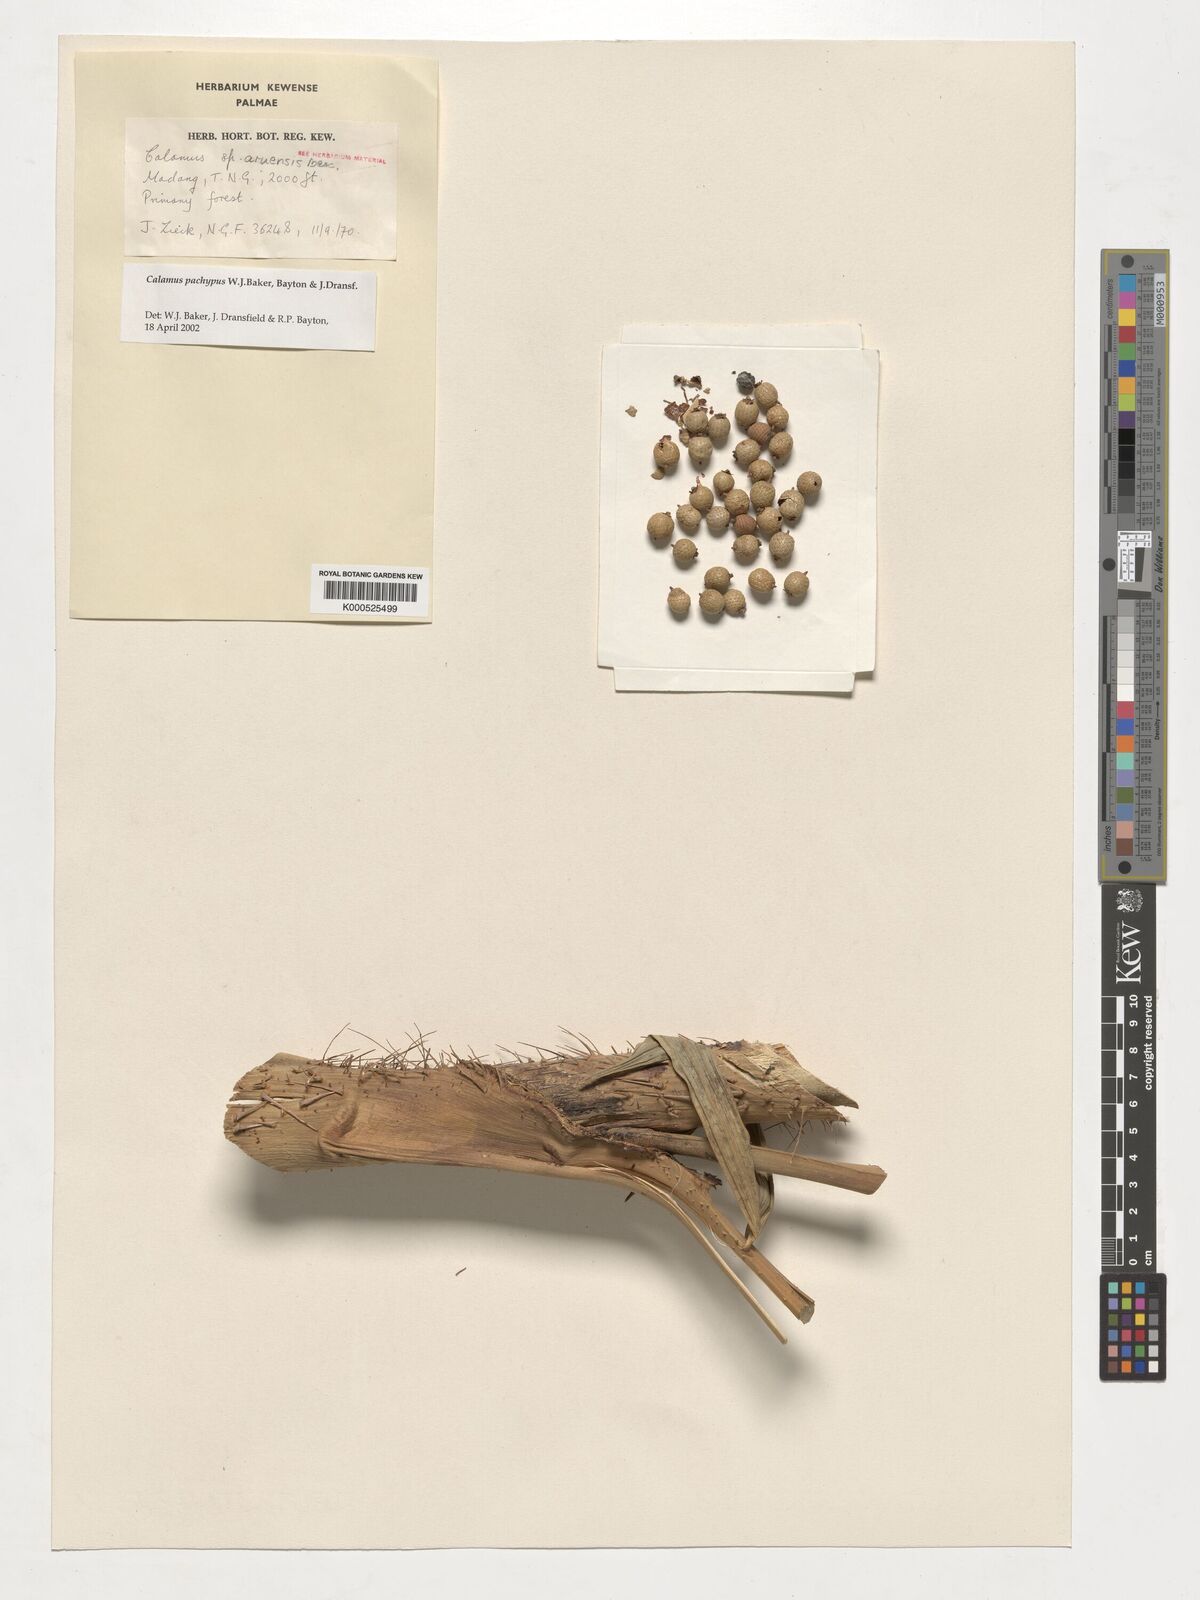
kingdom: Plantae
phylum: Tracheophyta
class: Liliopsida
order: Arecales
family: Arecaceae
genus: Calamus
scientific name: Calamus
